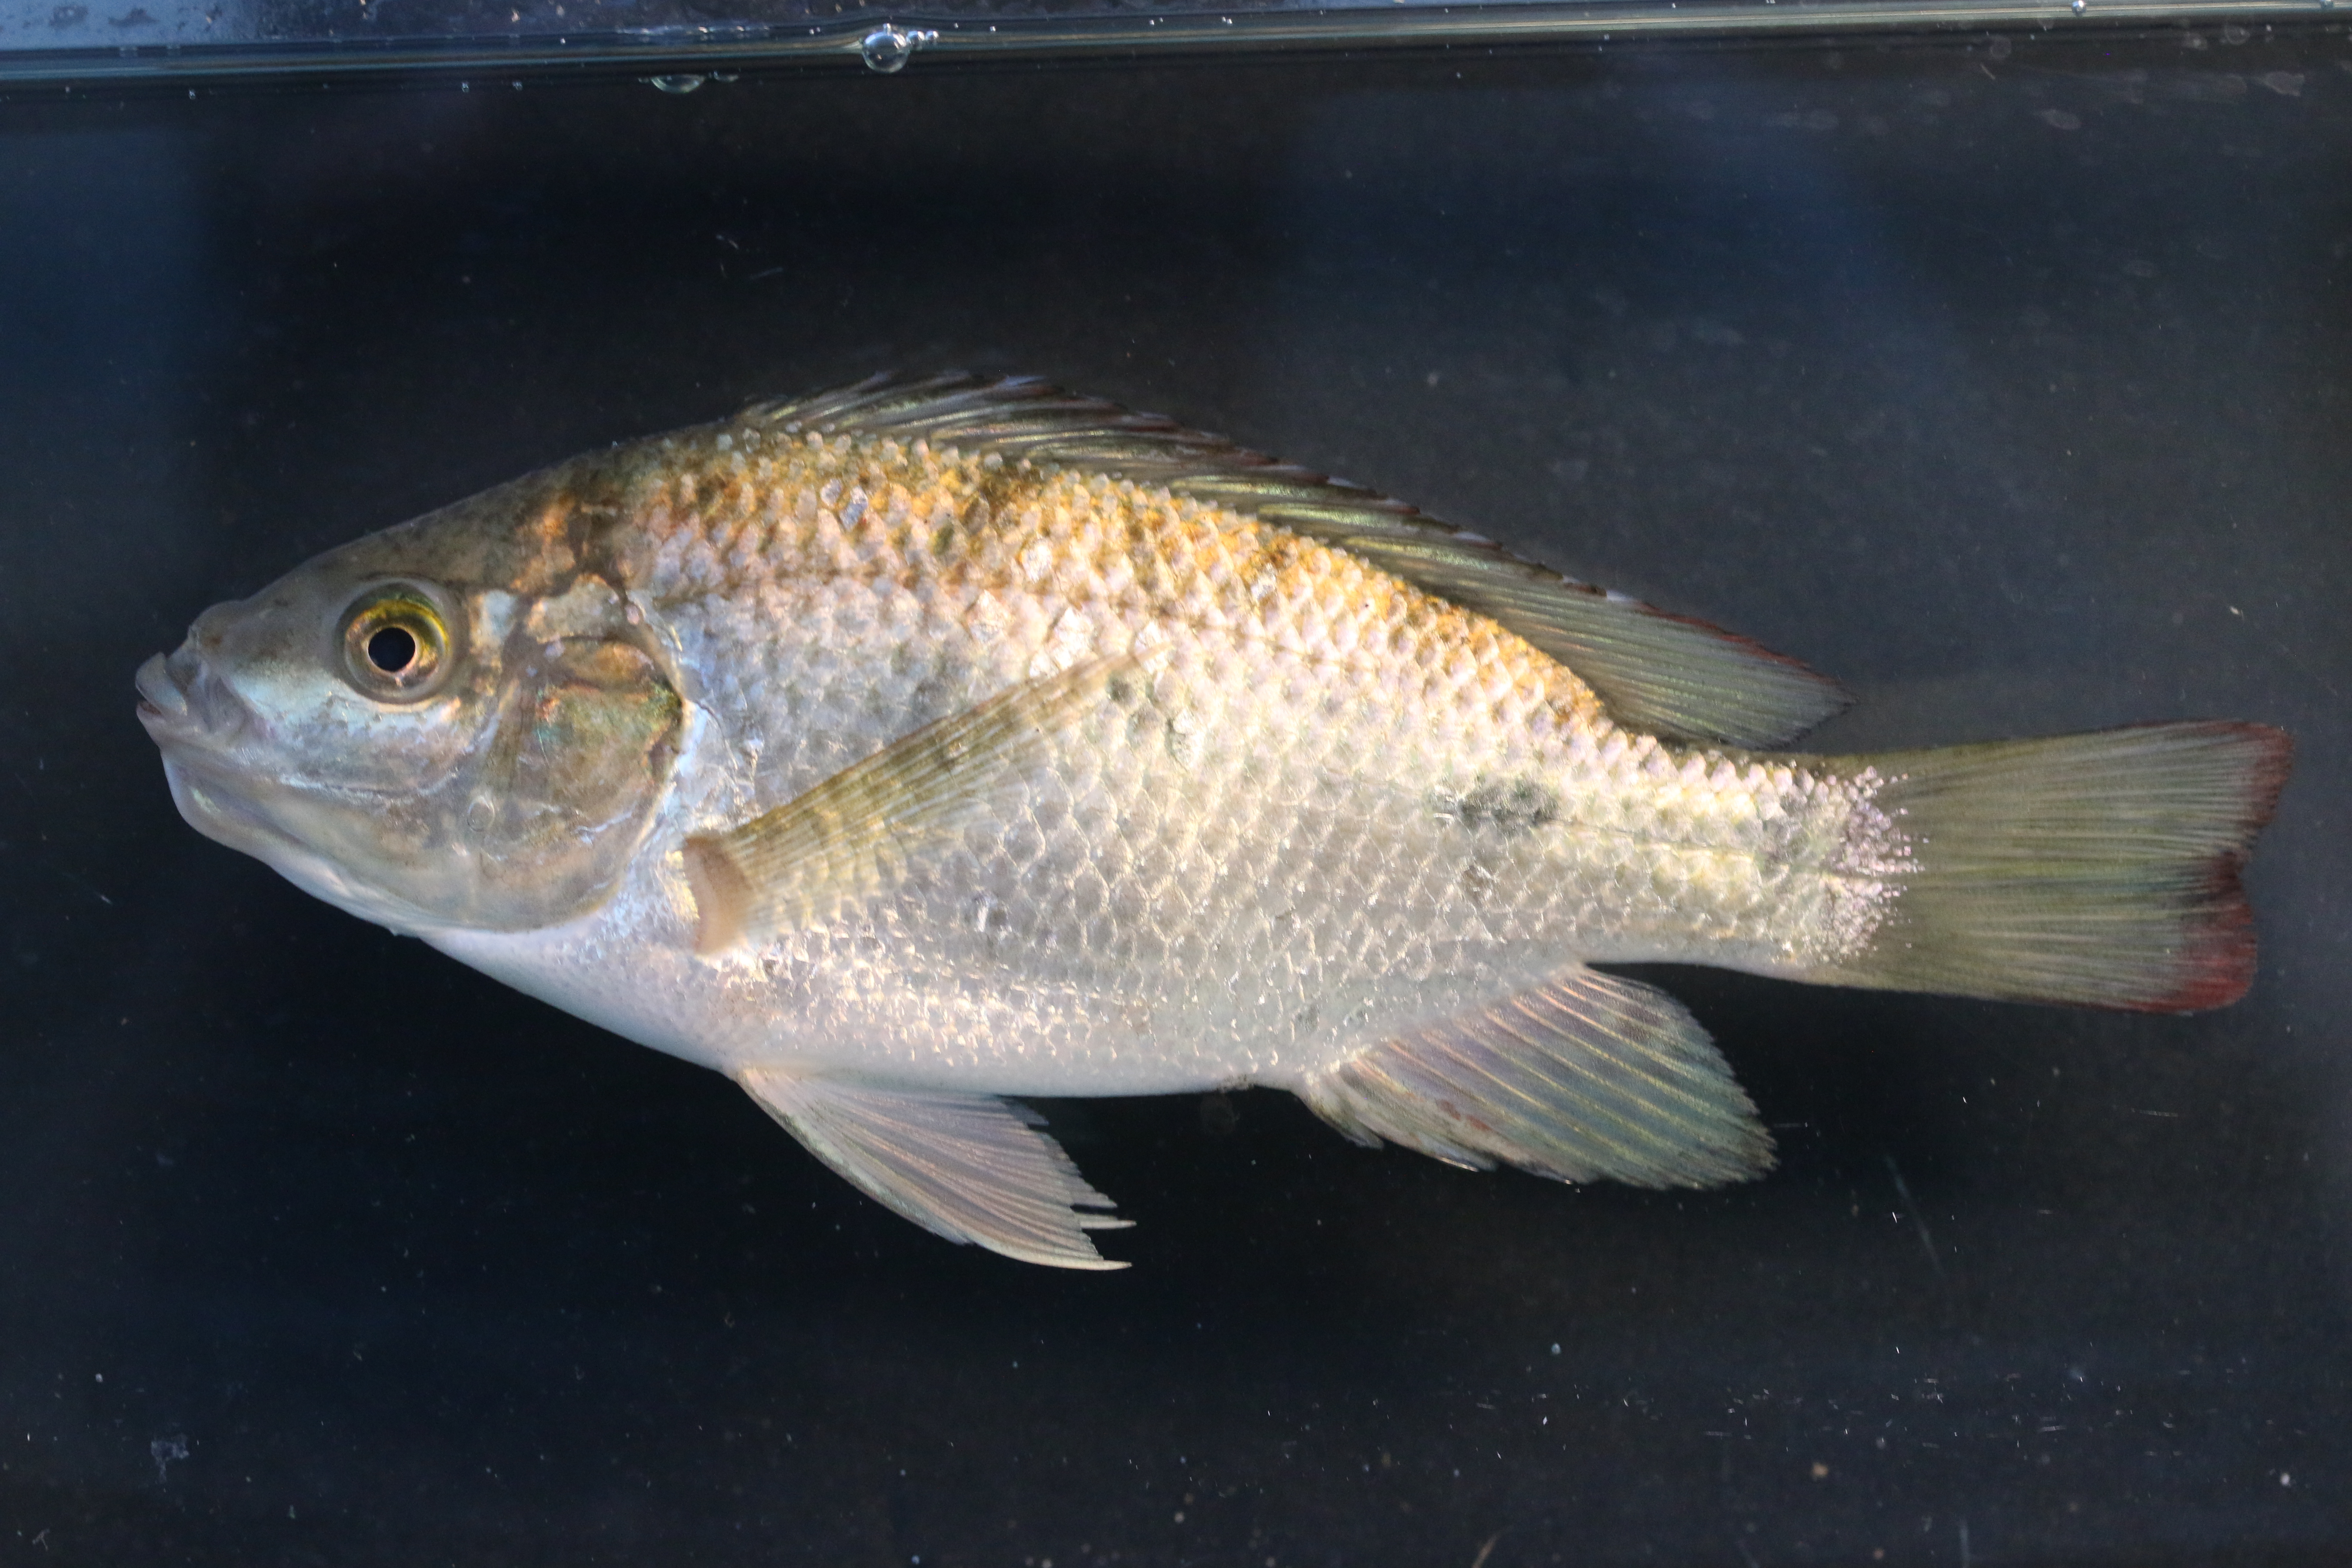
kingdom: Animalia
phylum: Chordata
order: Perciformes
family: Cichlidae
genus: Oreochromis
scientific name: Oreochromis mossambicus
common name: Mozambique tilapia
